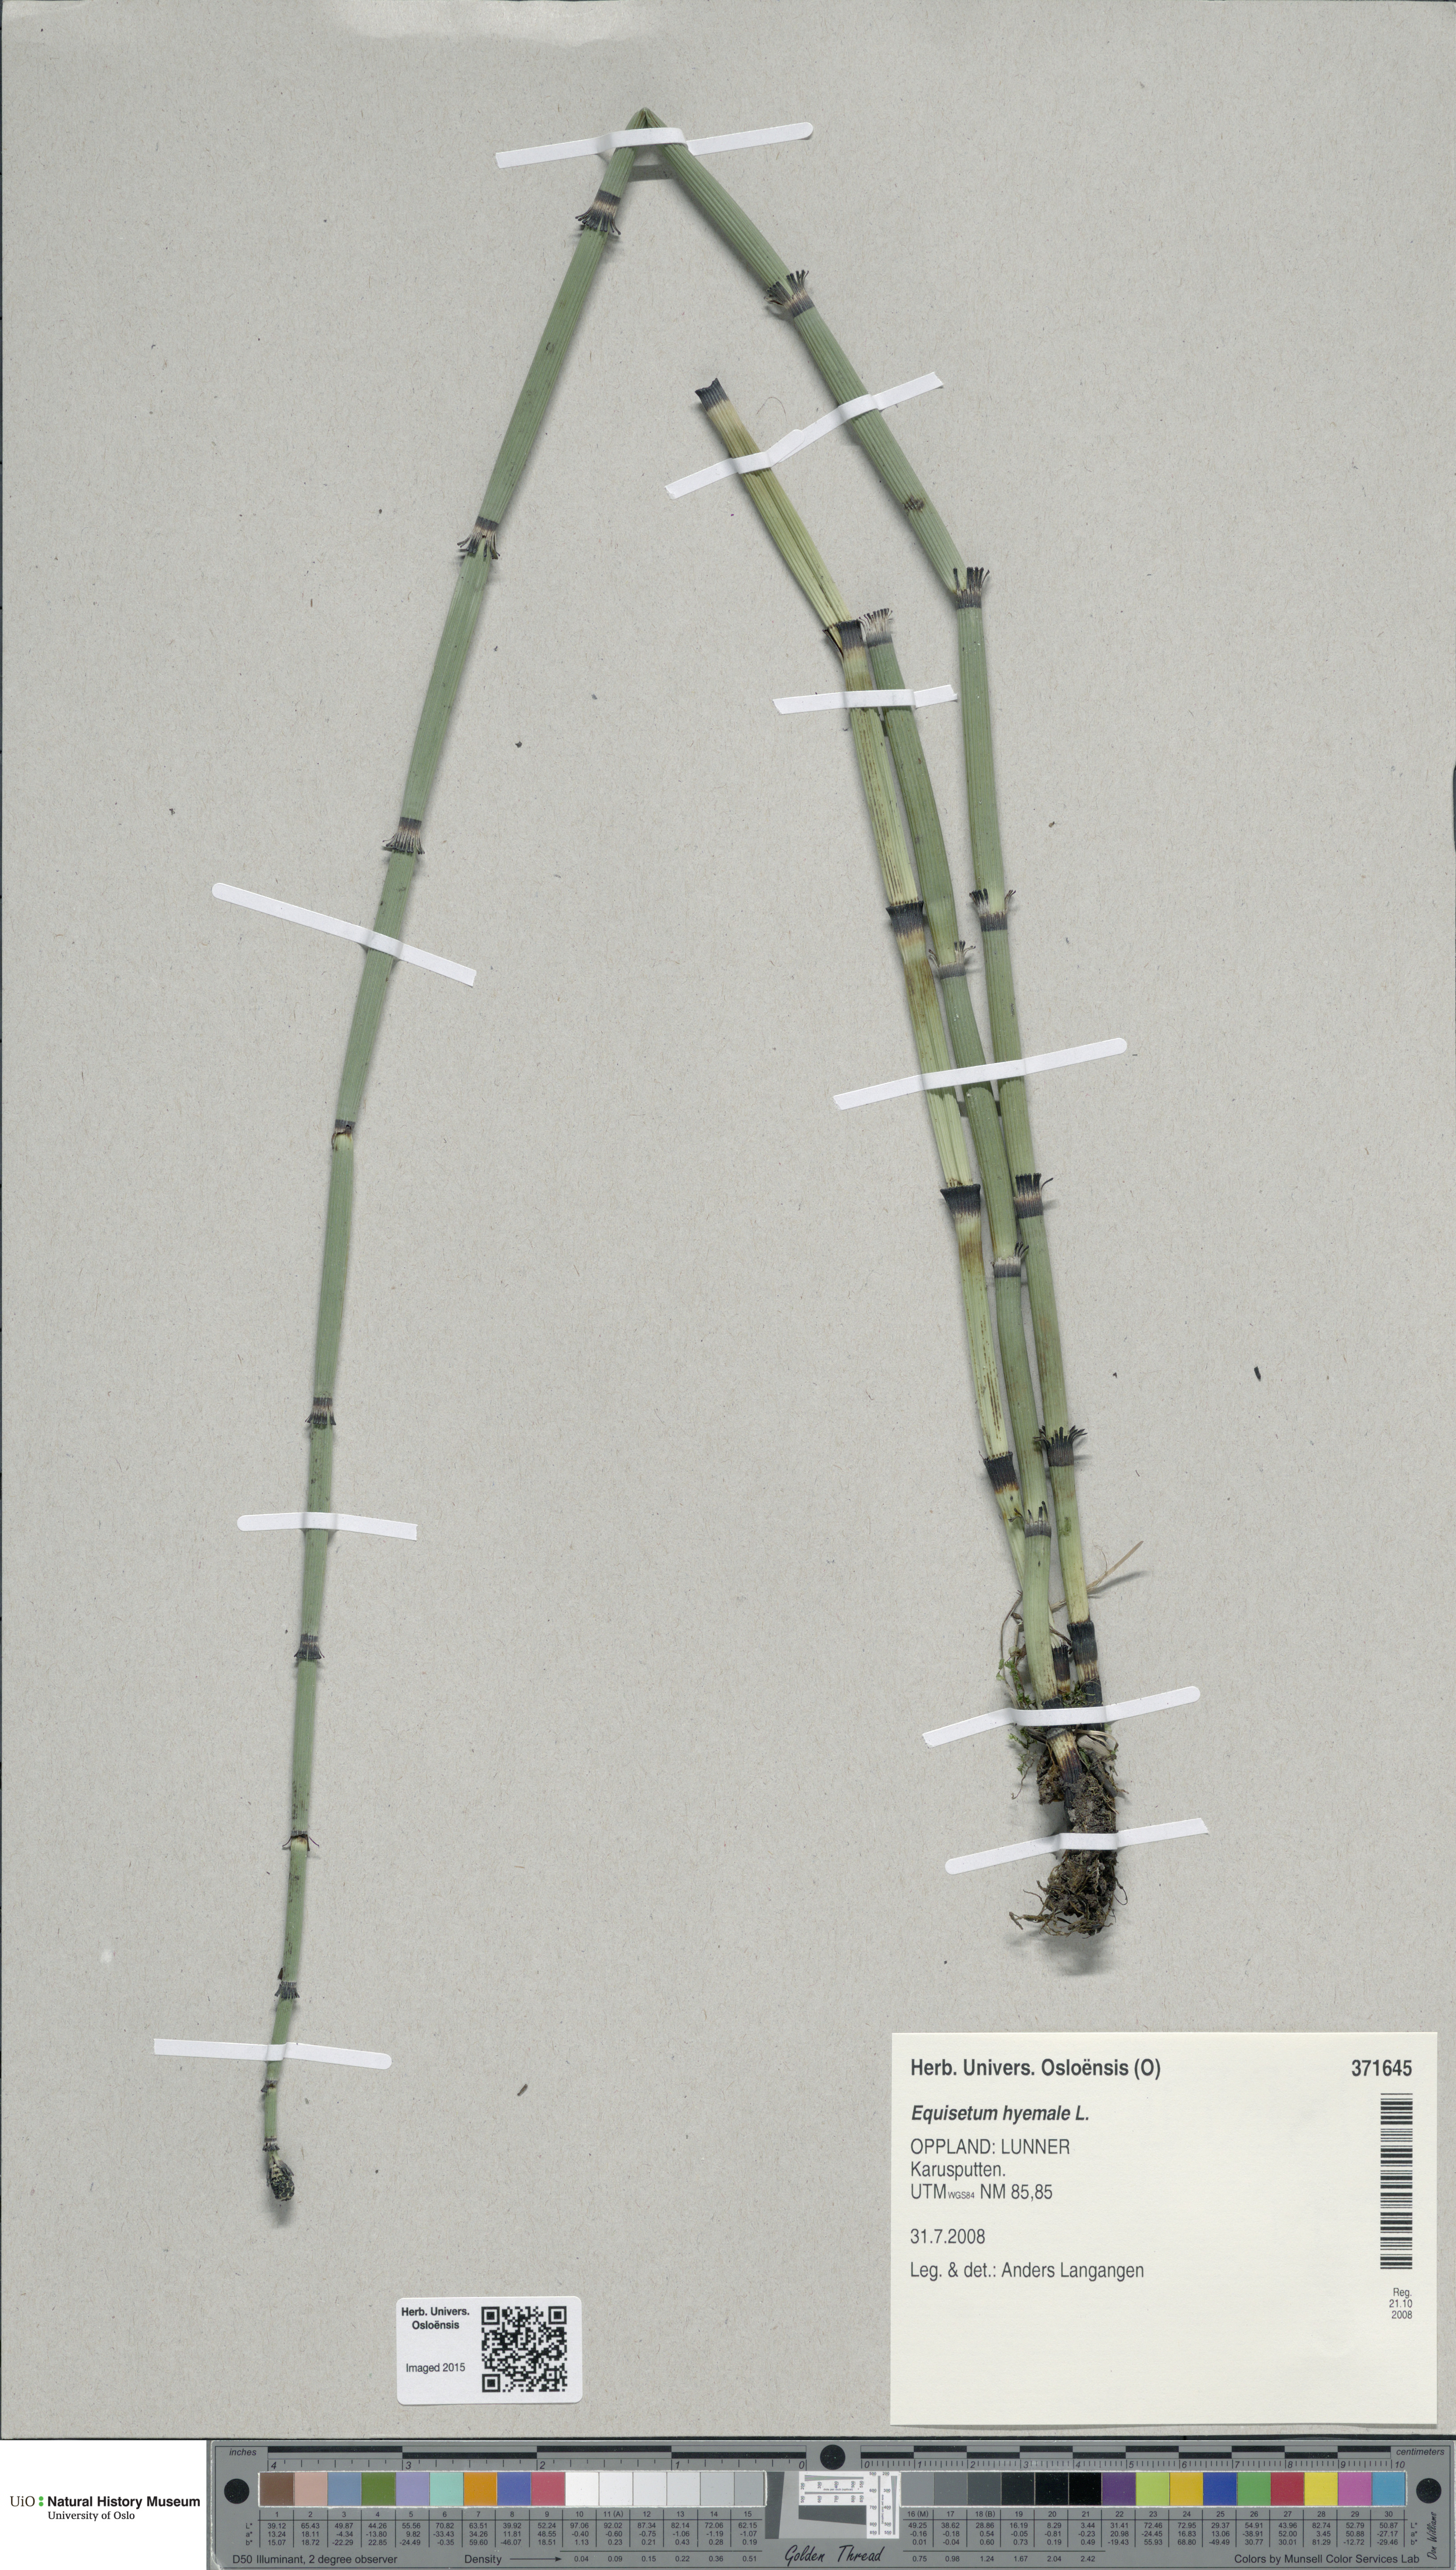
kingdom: Plantae
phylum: Tracheophyta
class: Polypodiopsida
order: Equisetales
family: Equisetaceae
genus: Equisetum
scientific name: Equisetum hyemale
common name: Rough horsetail
